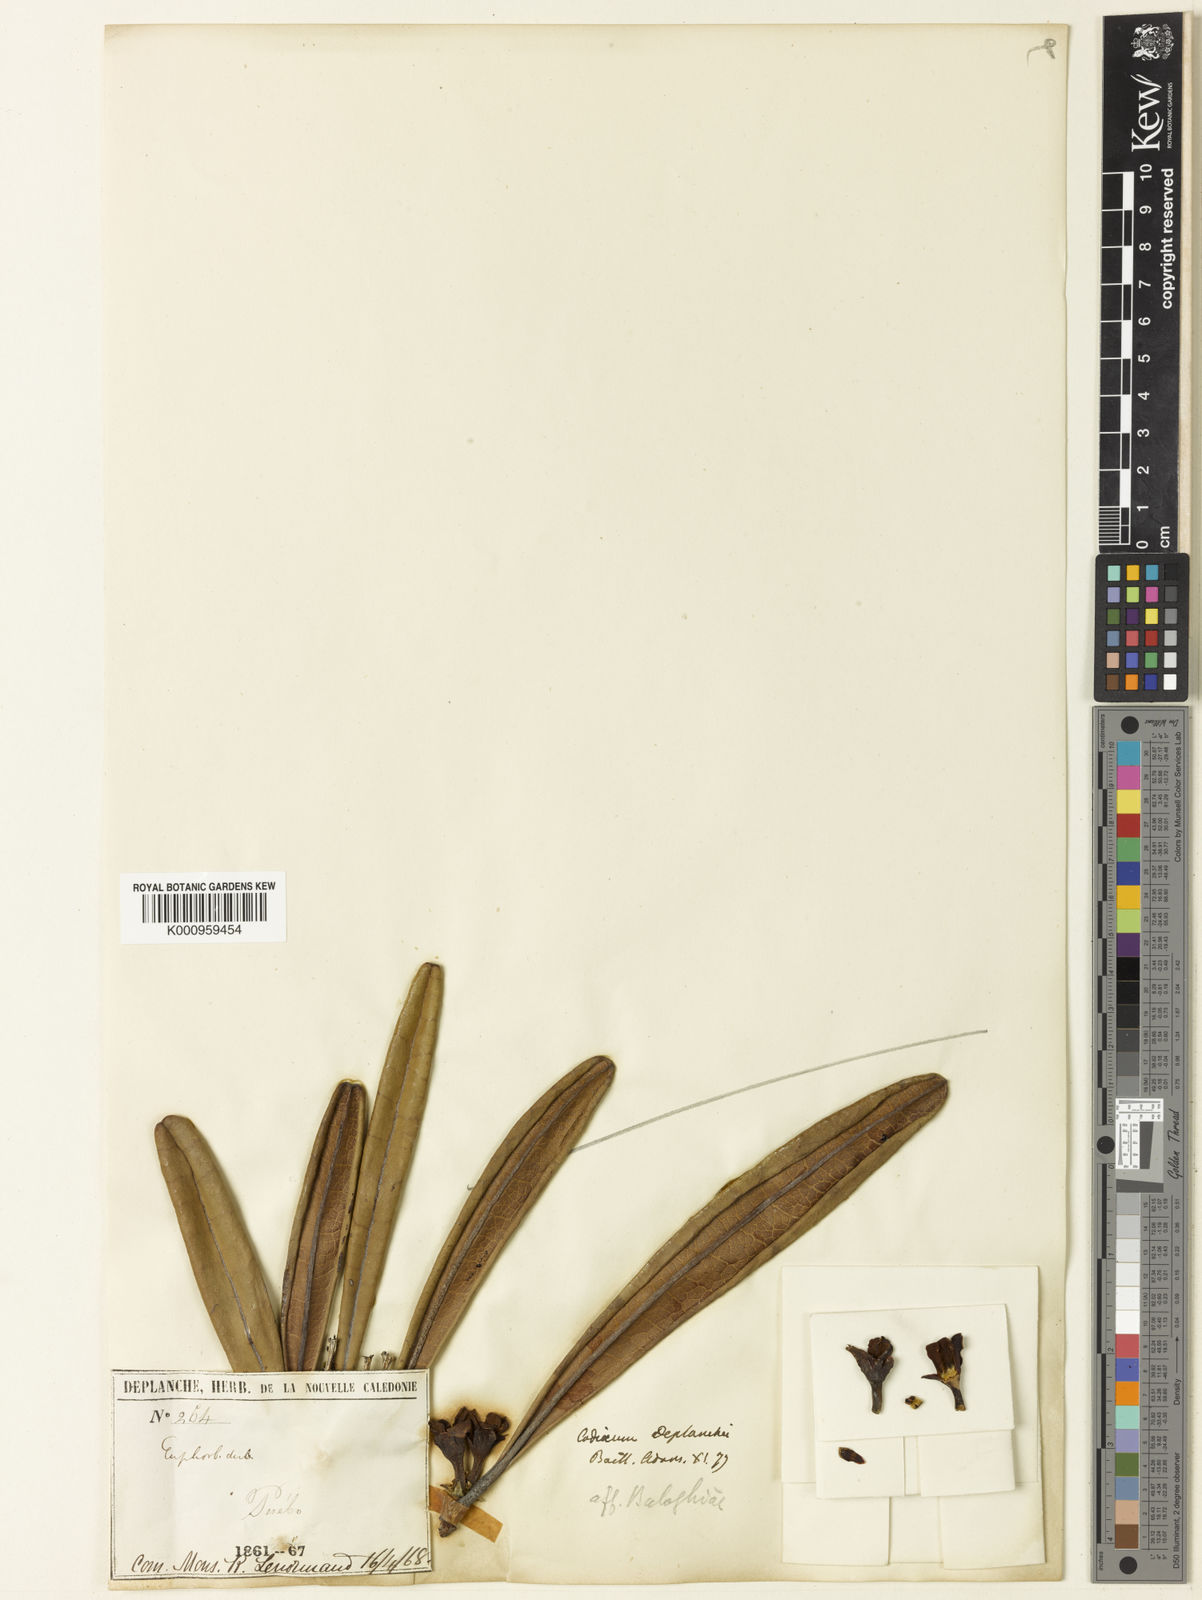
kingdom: Plantae
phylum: Tracheophyta
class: Magnoliopsida
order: Malpighiales
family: Euphorbiaceae
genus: Baloghia
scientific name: Baloghia deplanchei
